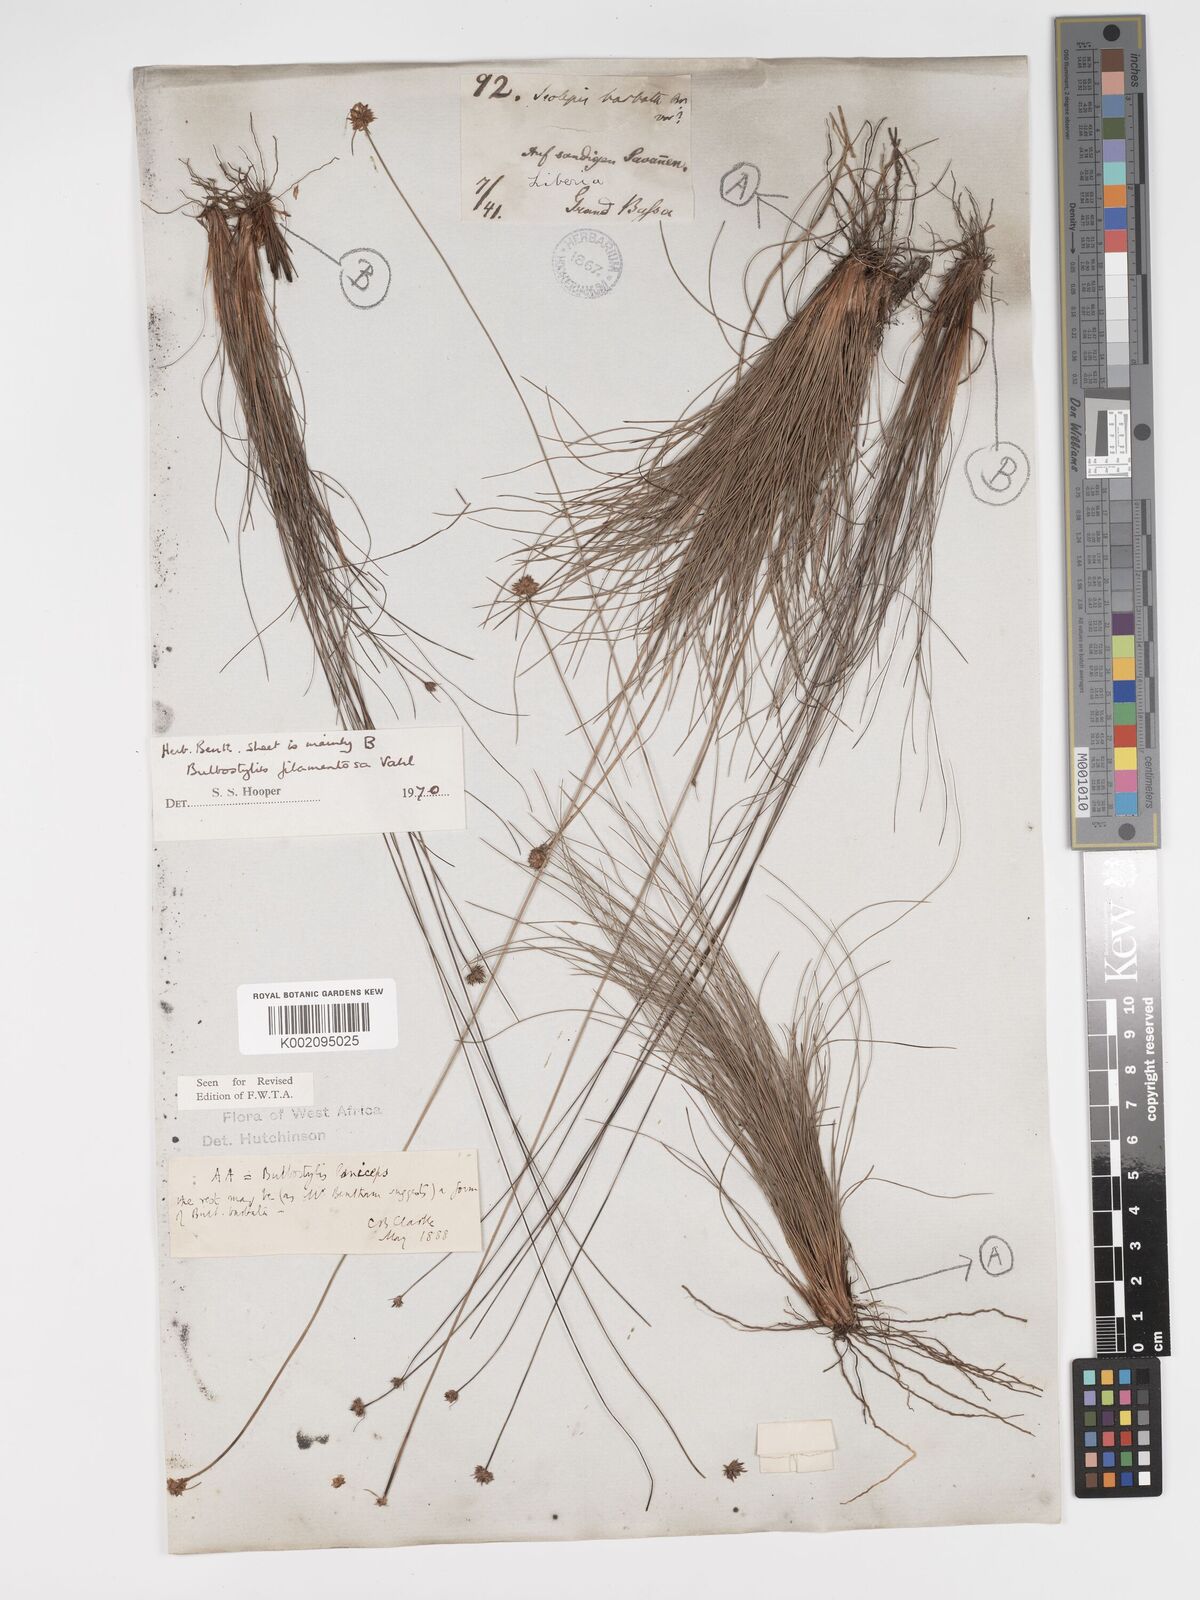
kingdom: Plantae
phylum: Tracheophyta
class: Liliopsida
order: Poales
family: Cyperaceae
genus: Bulbostylis
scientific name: Bulbostylis laniceps
